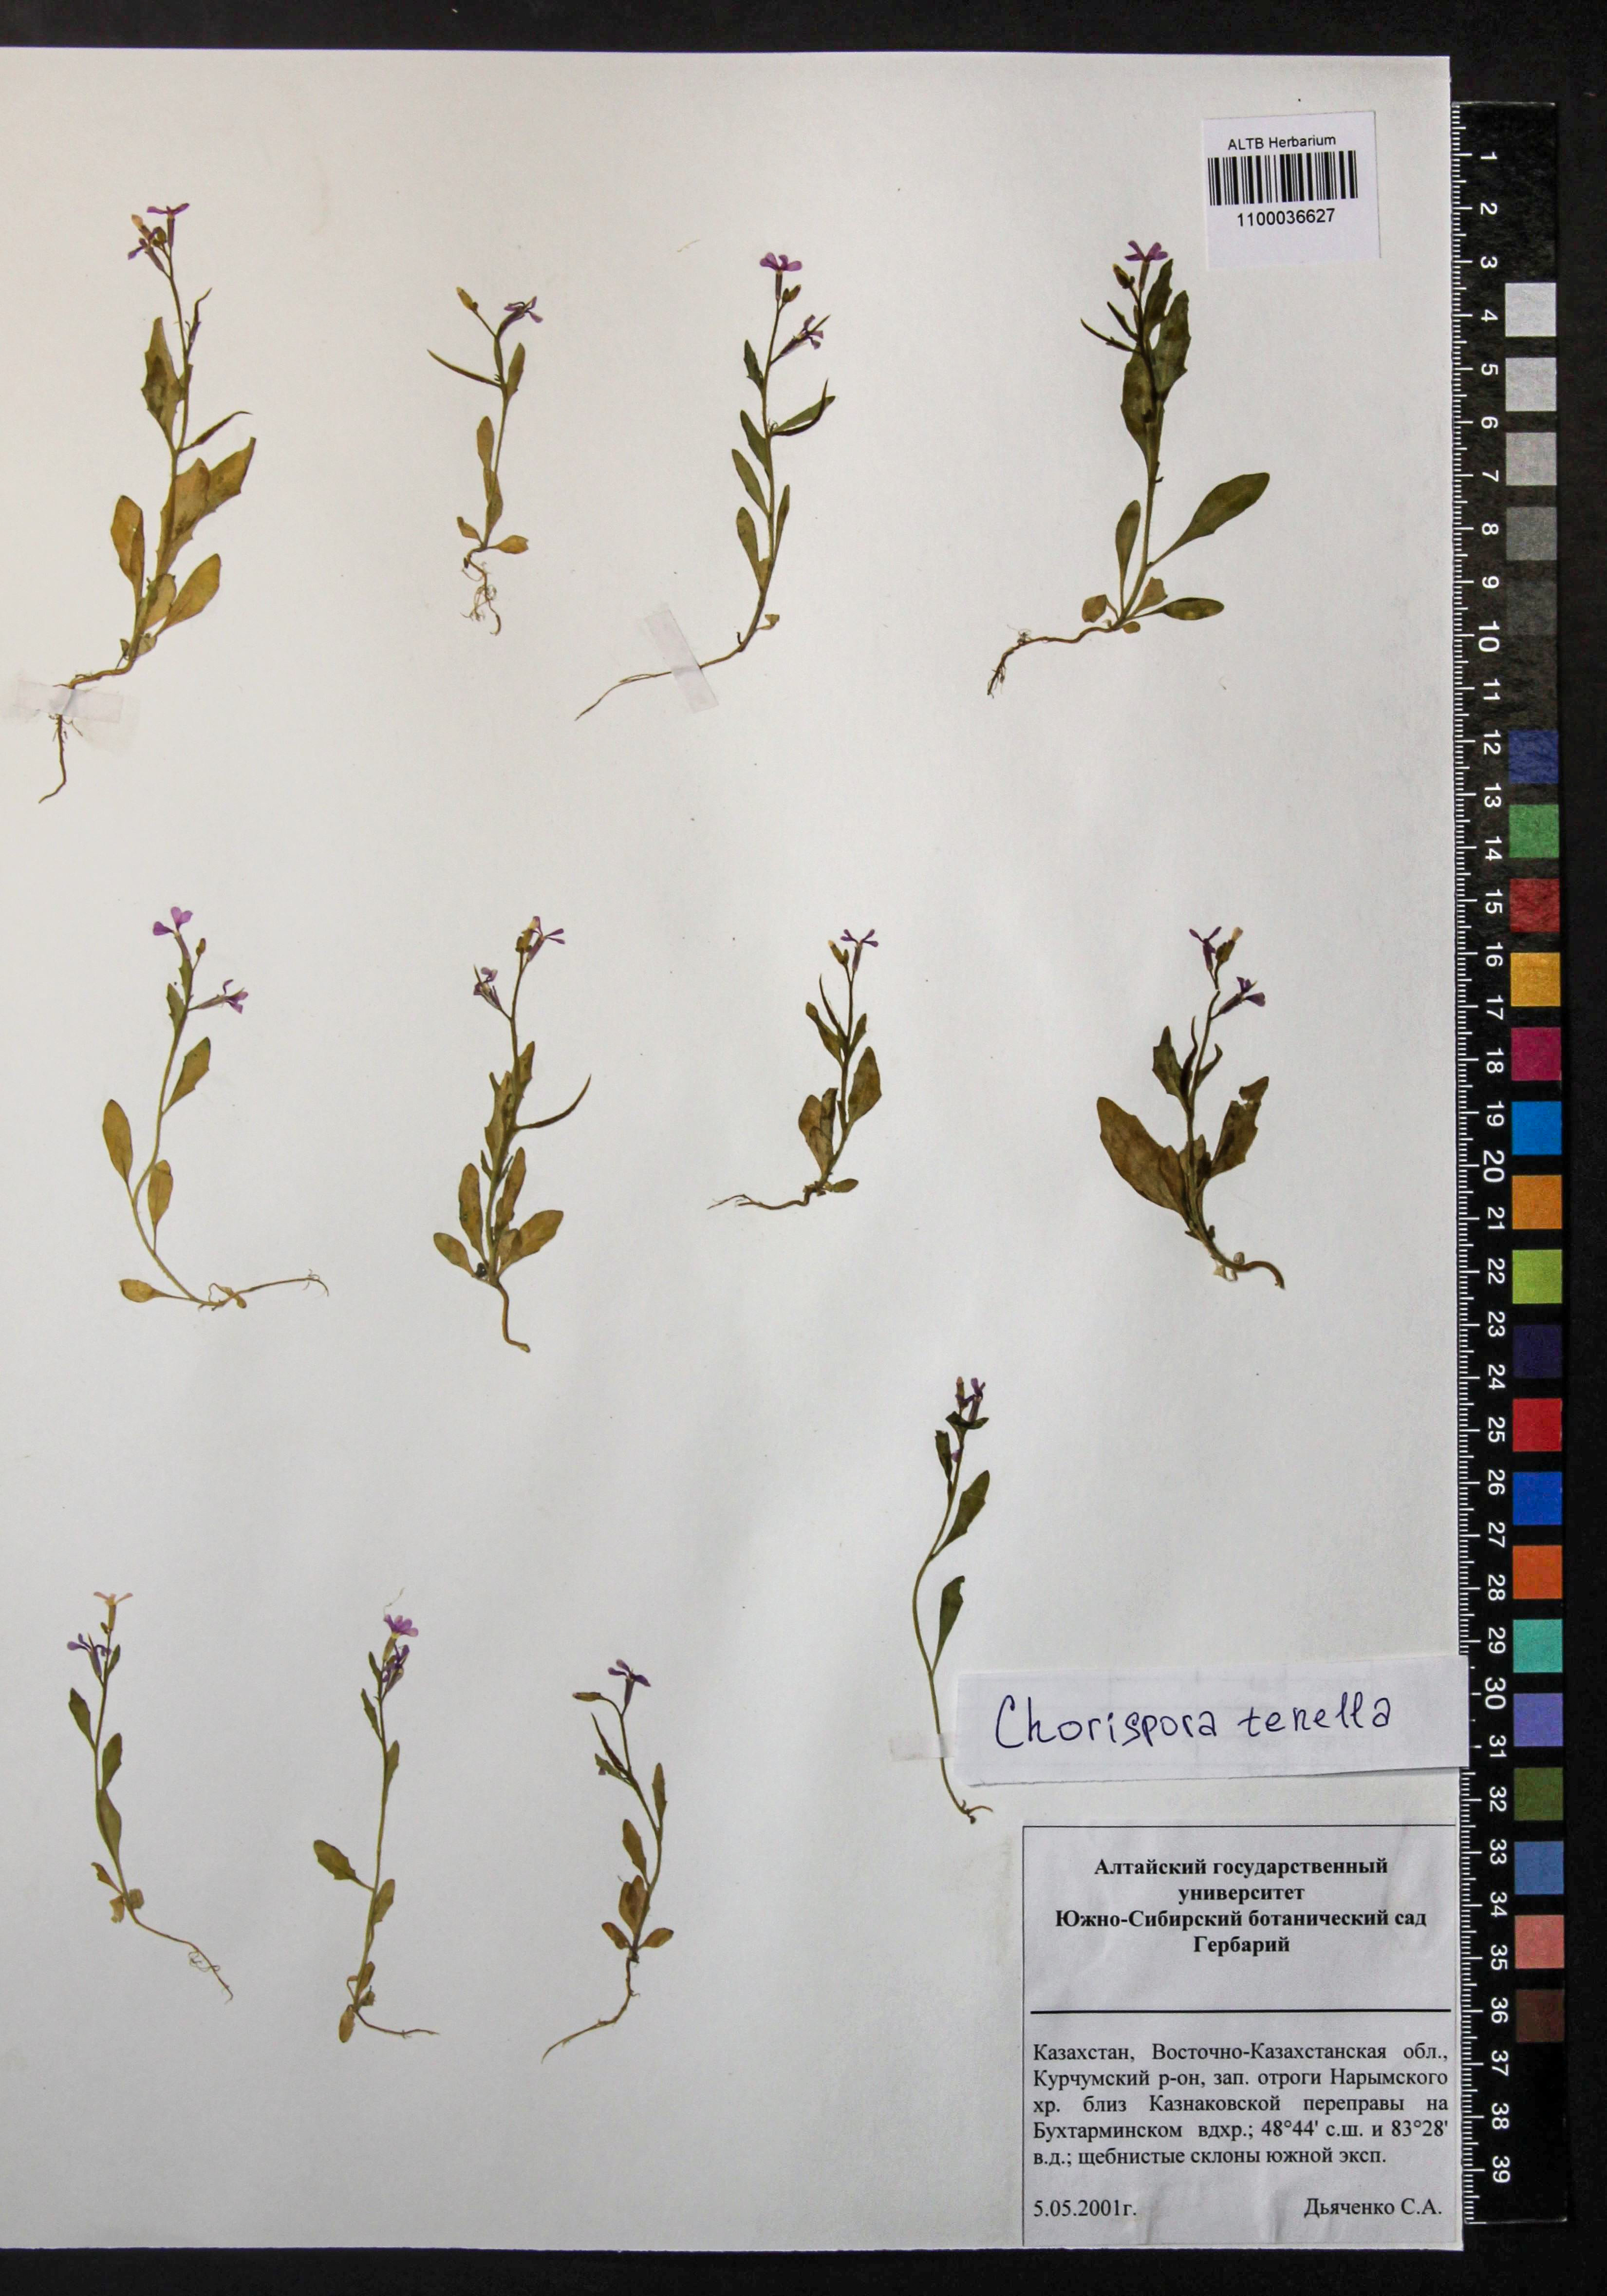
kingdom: Plantae
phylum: Tracheophyta
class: Magnoliopsida
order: Brassicales
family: Brassicaceae
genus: Chorispora
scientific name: Chorispora tenella
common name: Crossflower
